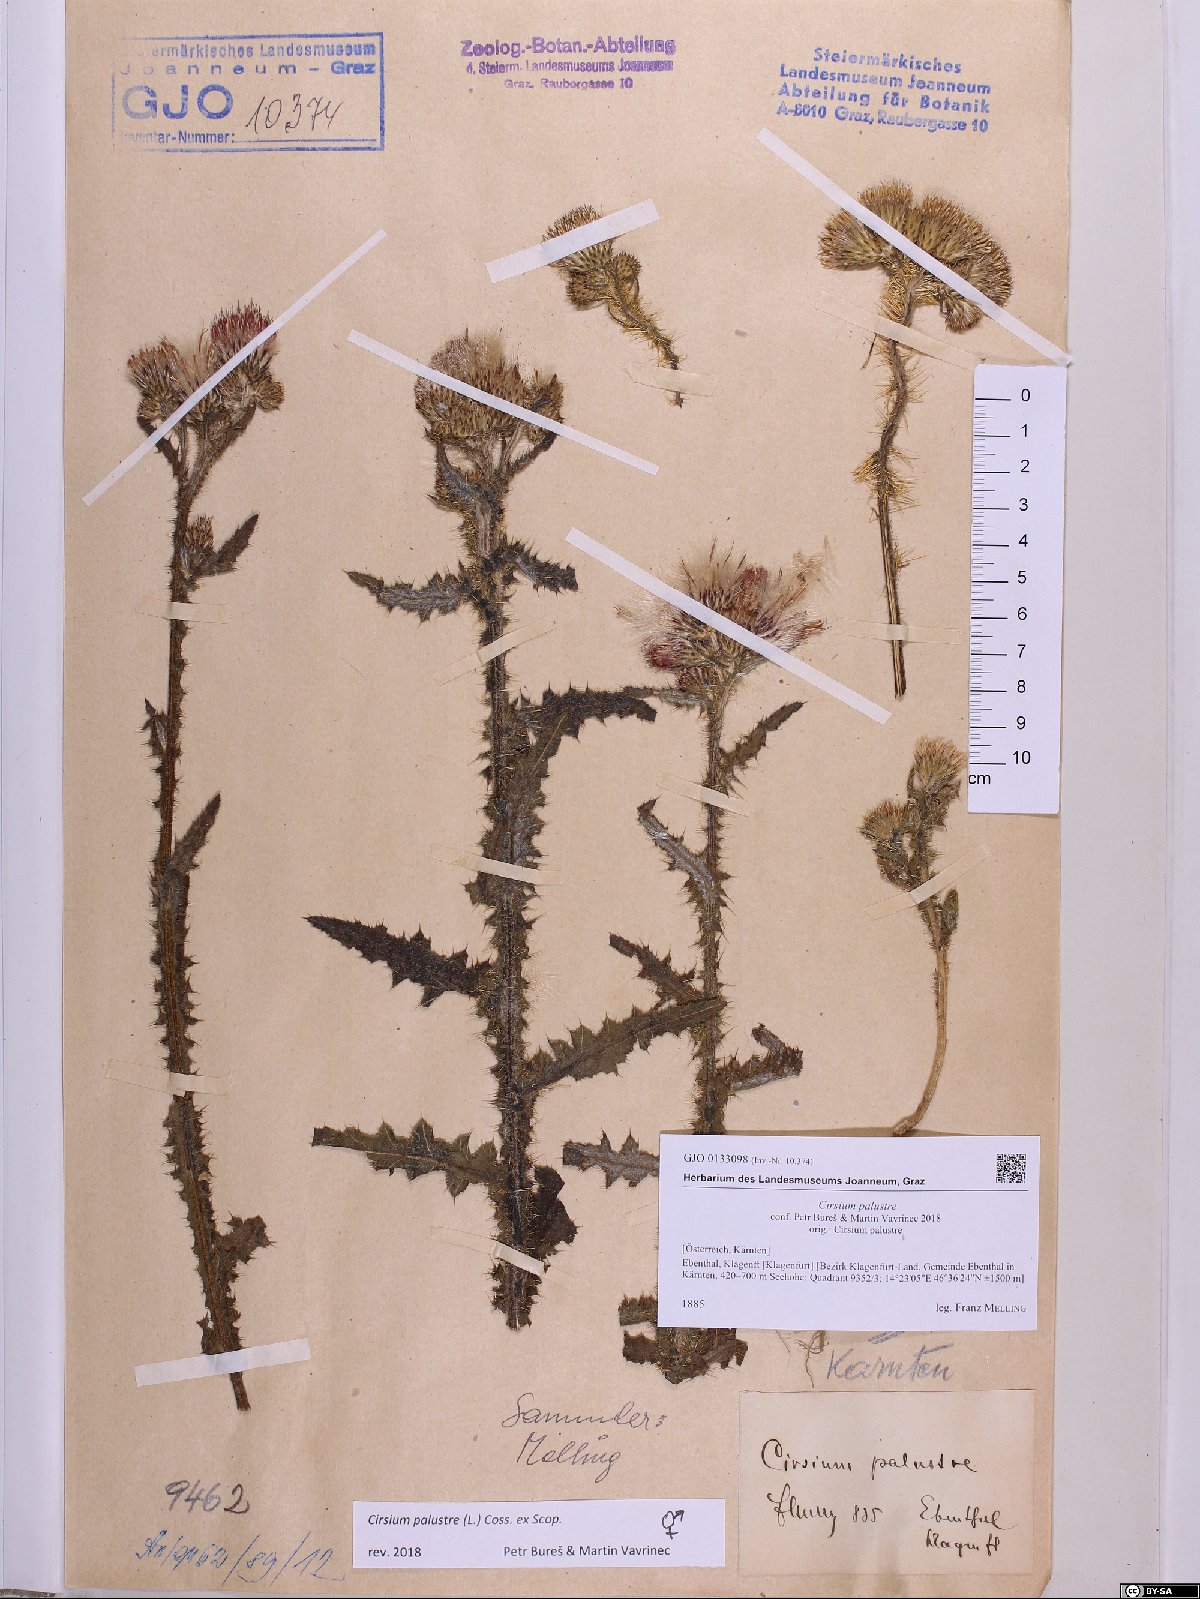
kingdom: Plantae
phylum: Tracheophyta
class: Magnoliopsida
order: Asterales
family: Asteraceae
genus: Cirsium
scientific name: Cirsium palustre
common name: Marsh thistle
